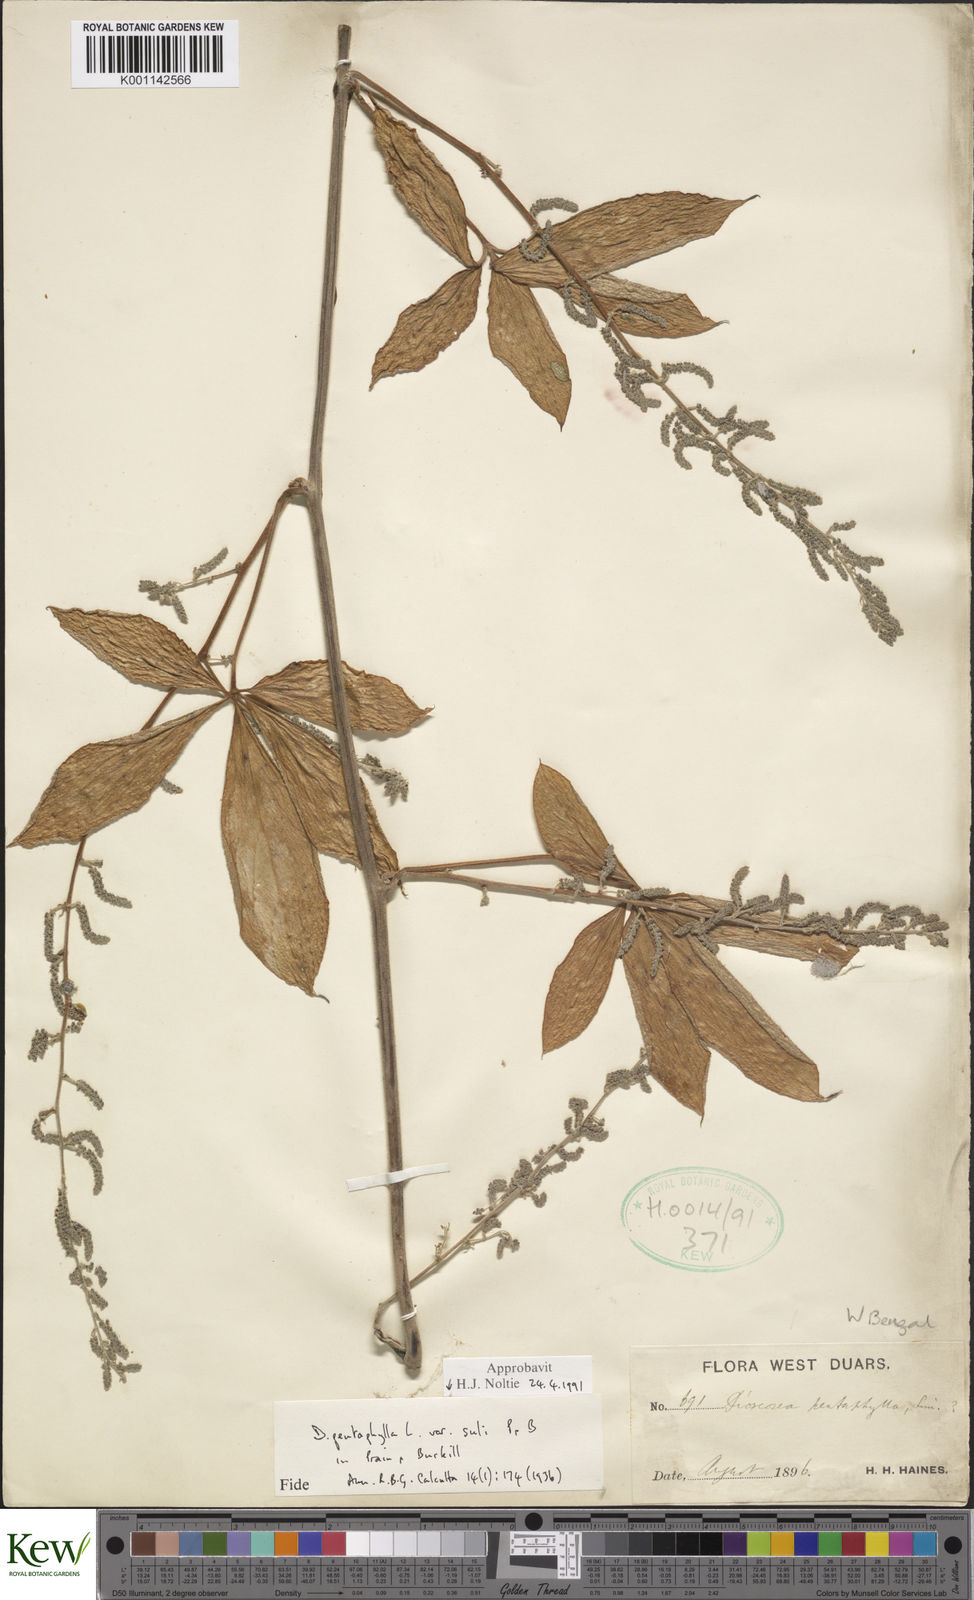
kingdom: Plantae
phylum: Tracheophyta
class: Liliopsida
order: Dioscoreales
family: Dioscoreaceae
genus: Dioscorea
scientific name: Dioscorea pentaphylla
